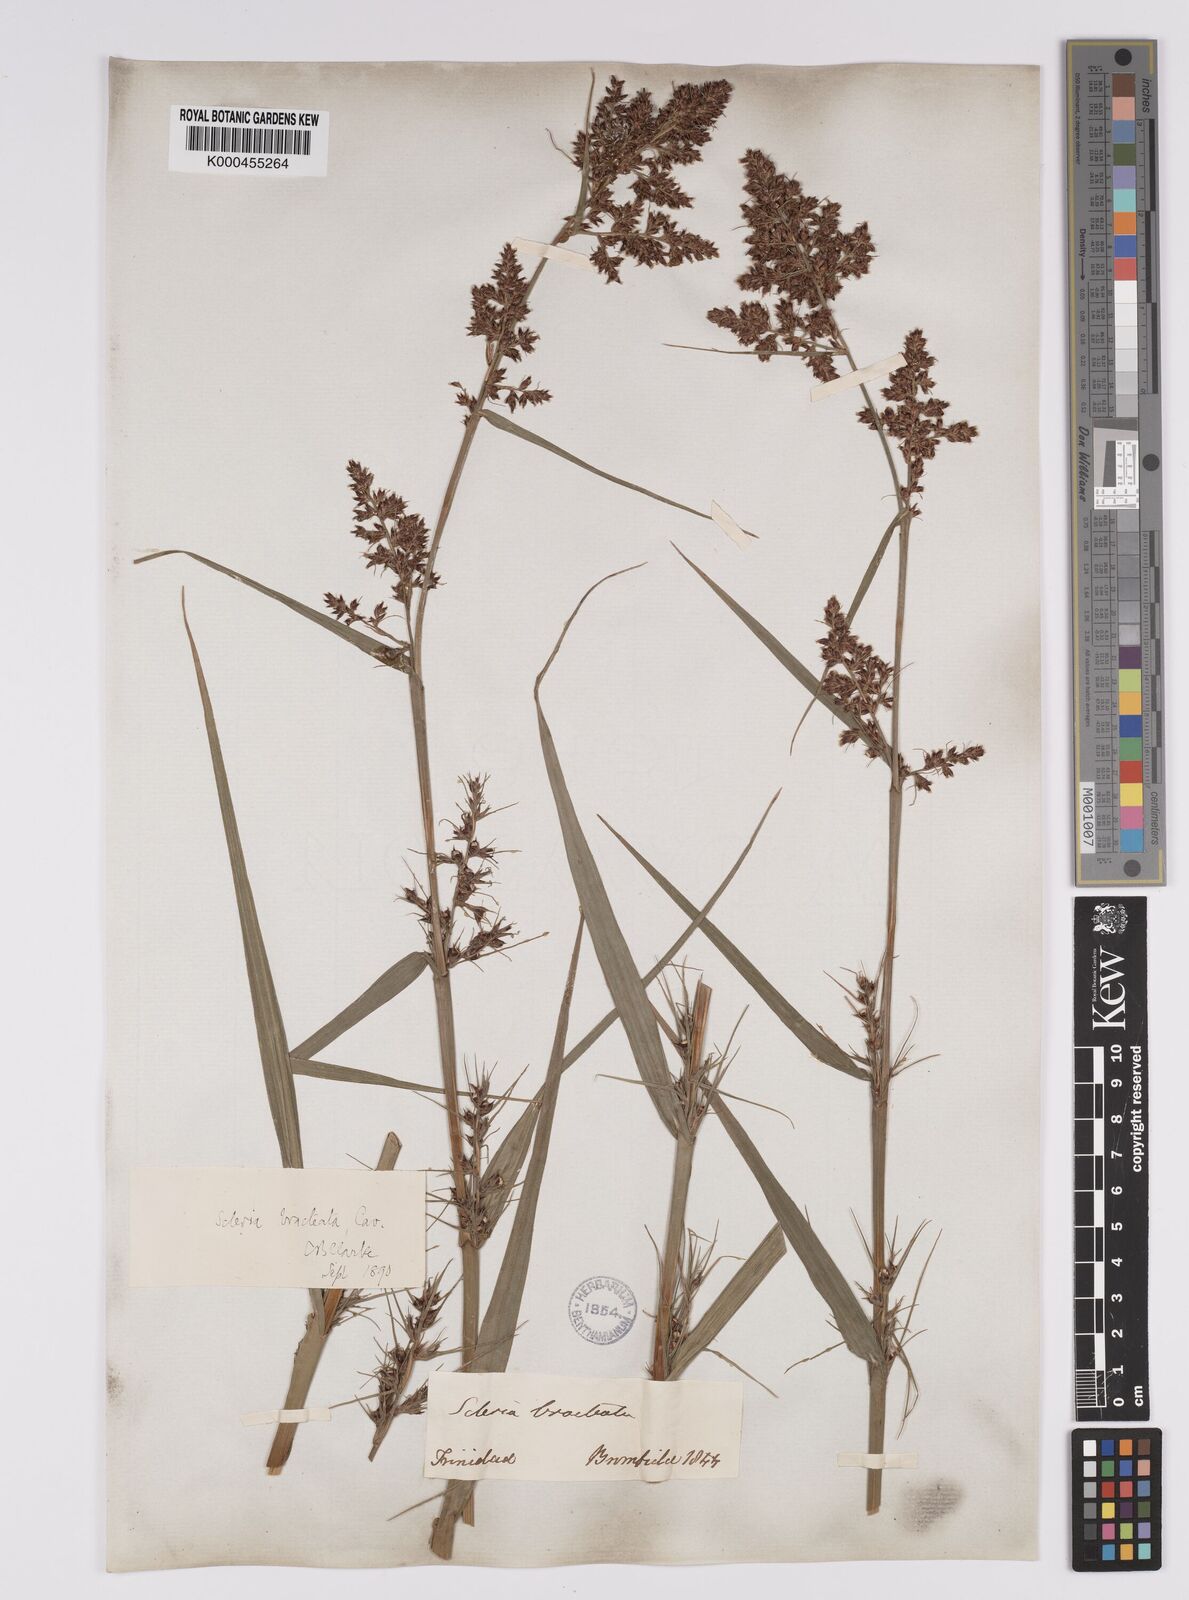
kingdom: Plantae
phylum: Tracheophyta
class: Liliopsida
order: Poales
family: Cyperaceae
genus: Scleria
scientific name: Scleria bracteata
